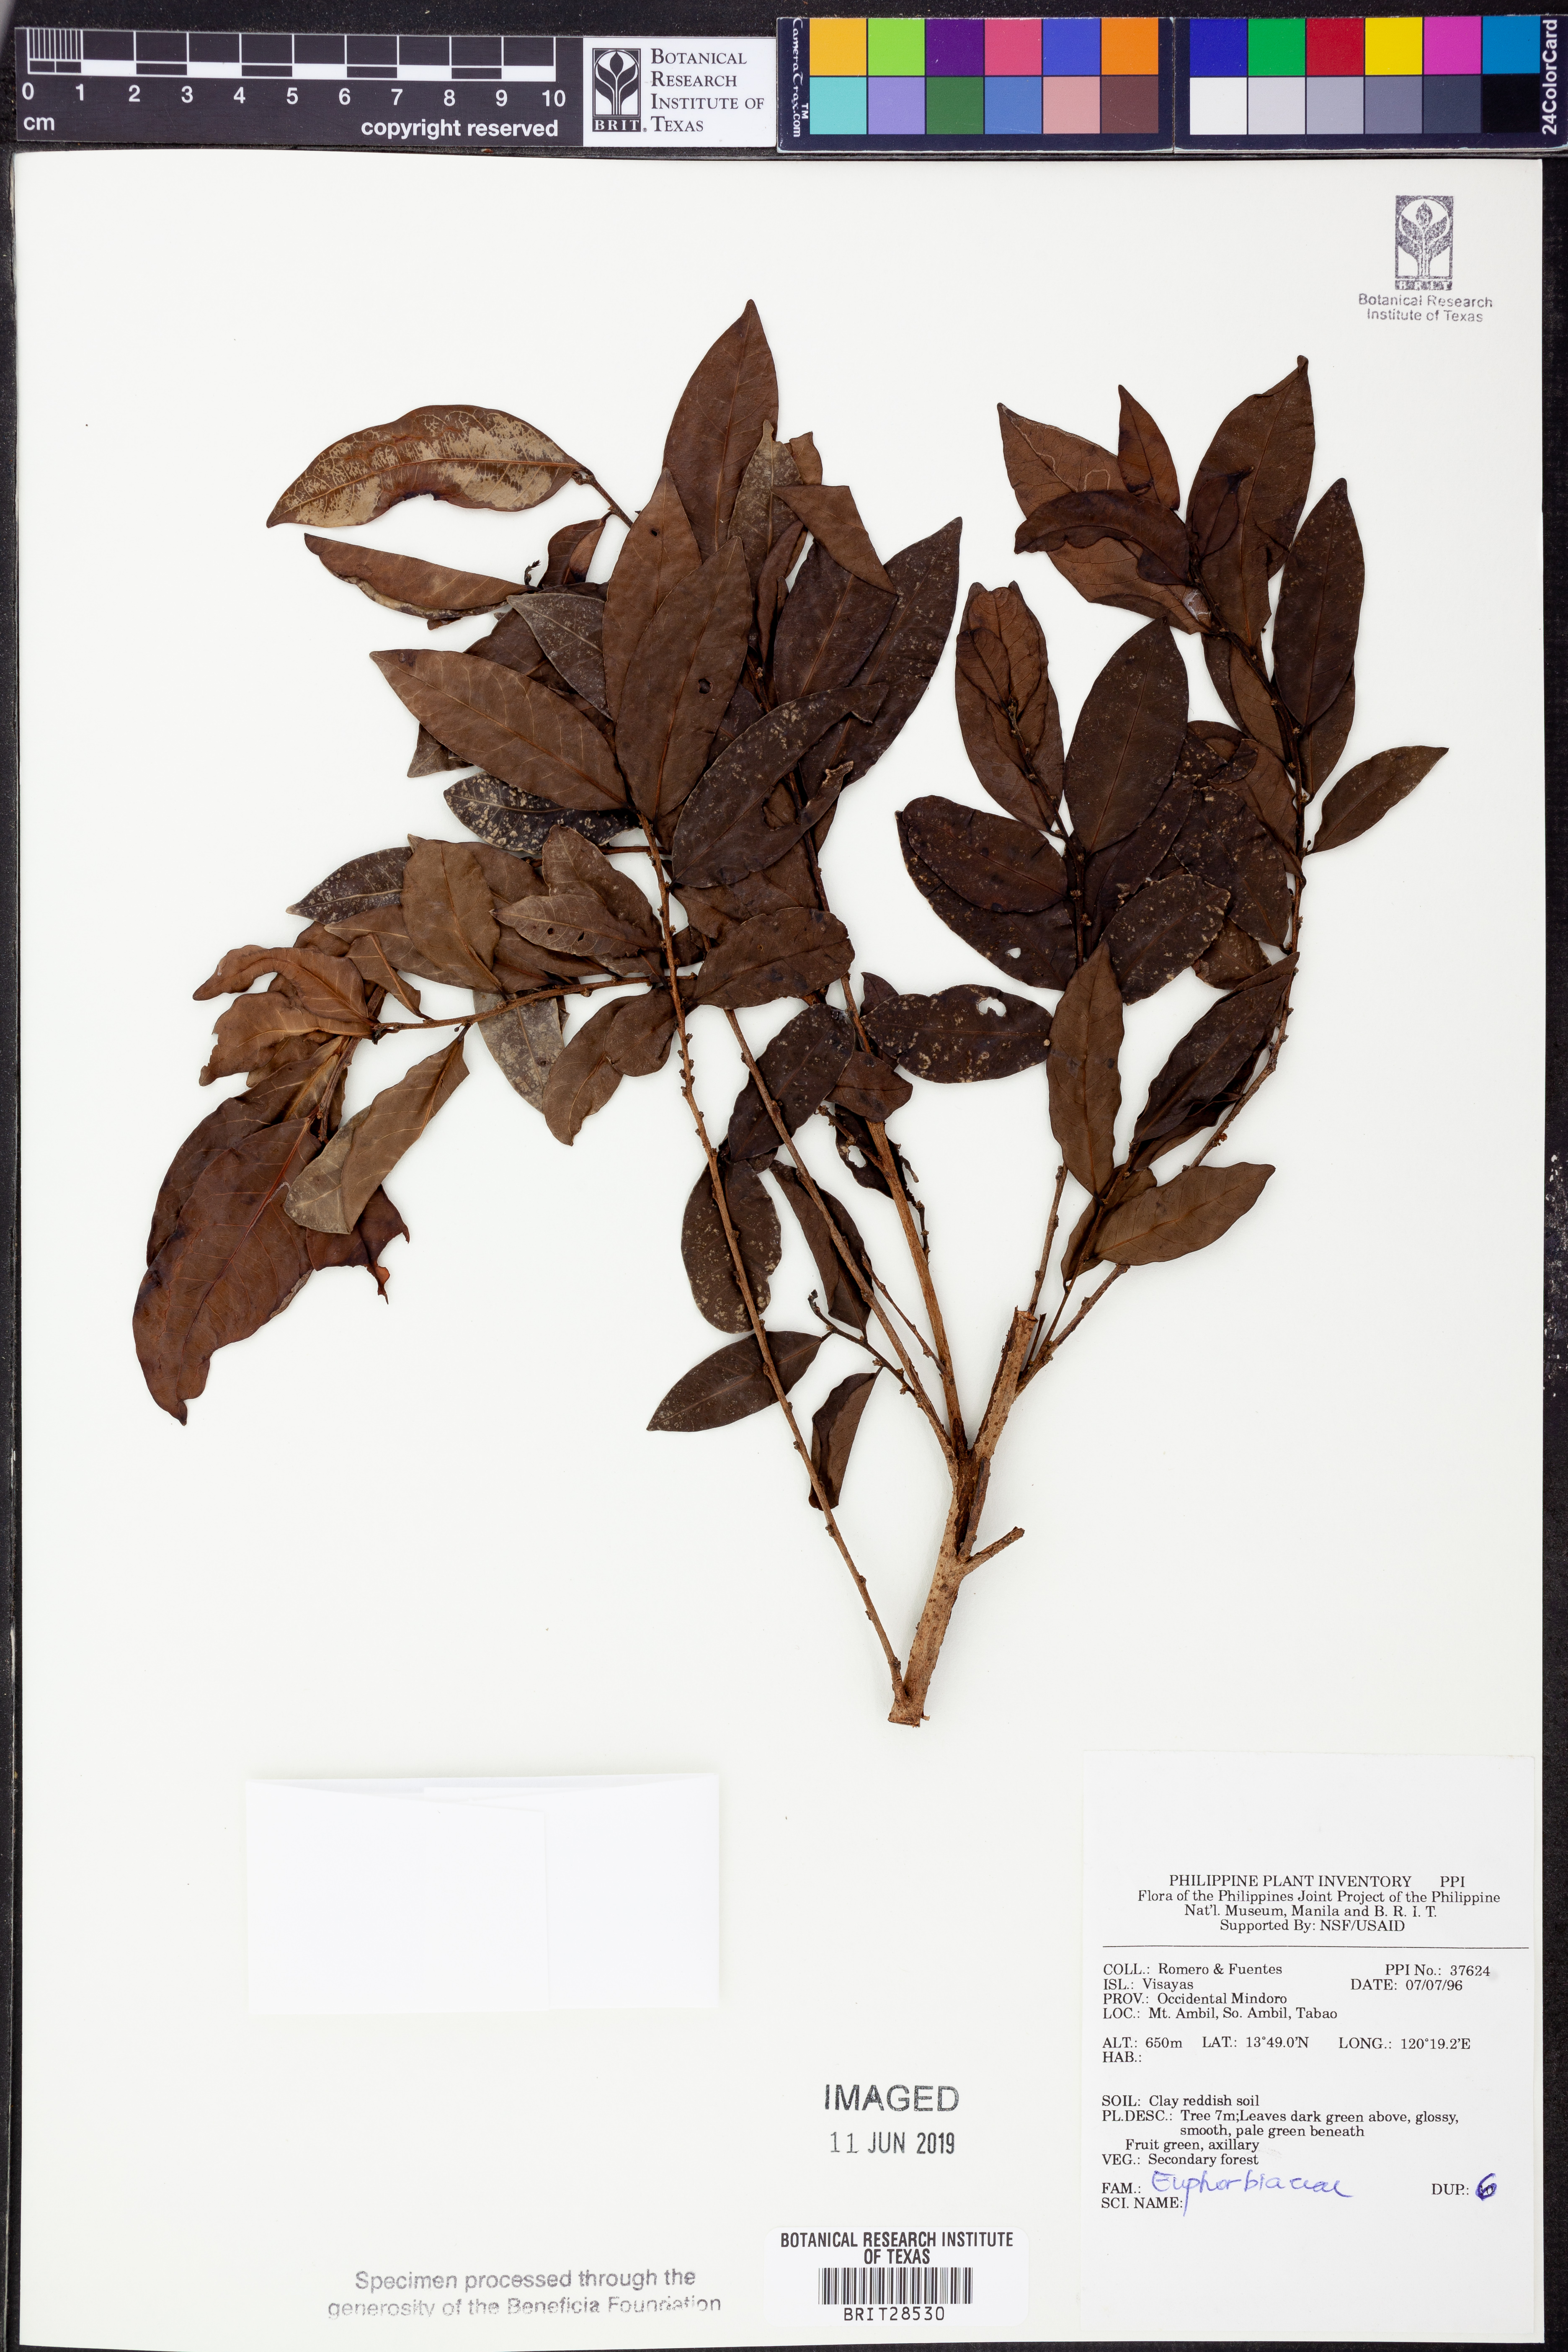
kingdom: Plantae
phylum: Tracheophyta
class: Magnoliopsida
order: Malpighiales
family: Euphorbiaceae
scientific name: Euphorbiaceae
